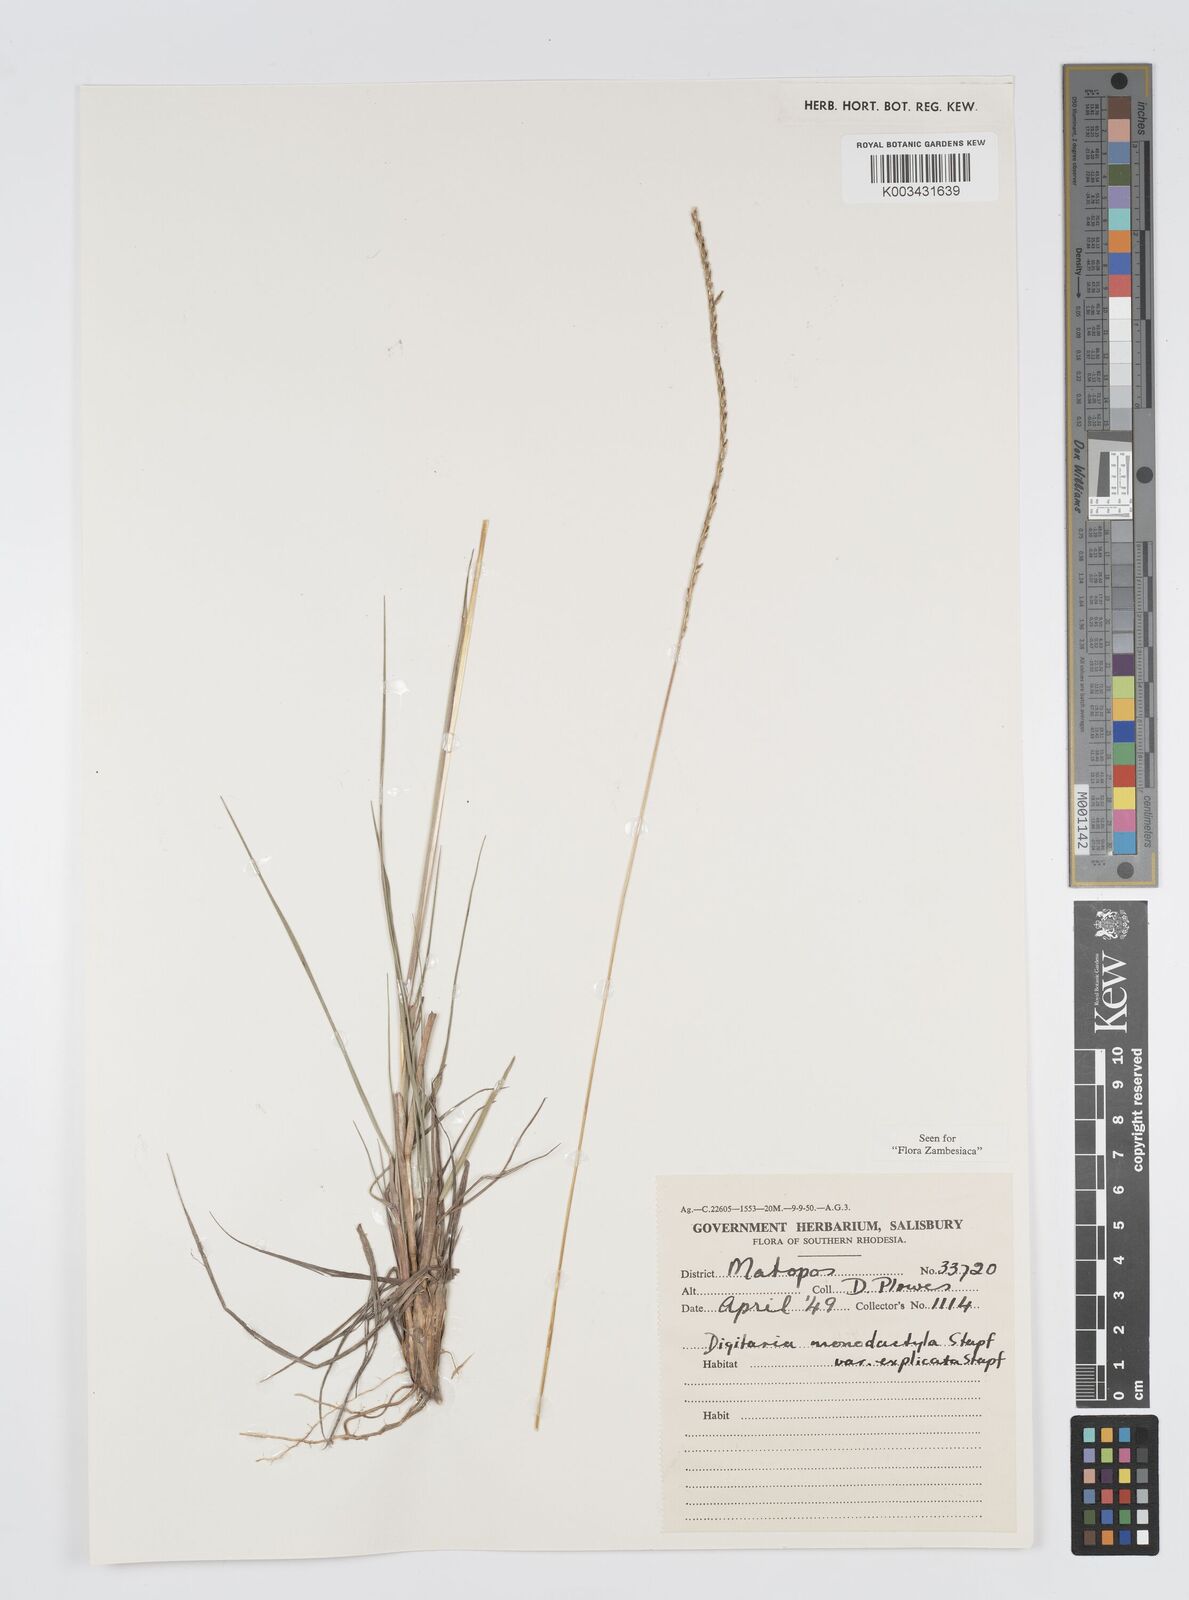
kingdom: Plantae
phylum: Tracheophyta
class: Liliopsida
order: Poales
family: Poaceae
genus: Digitaria
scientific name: Digitaria monodactyla
